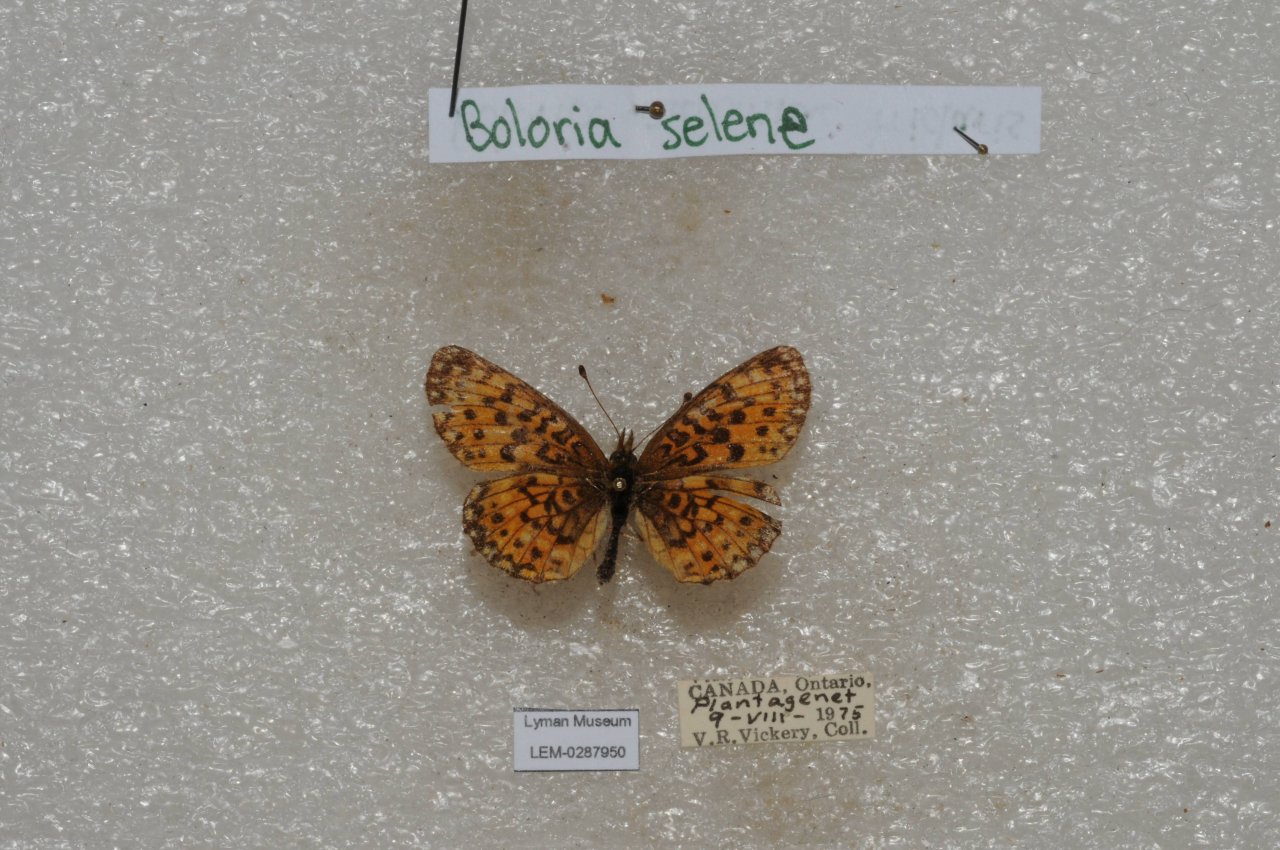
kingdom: Animalia
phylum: Arthropoda
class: Insecta
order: Lepidoptera
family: Nymphalidae
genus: Boloria
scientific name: Boloria selene
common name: Silver-bordered Fritillary
